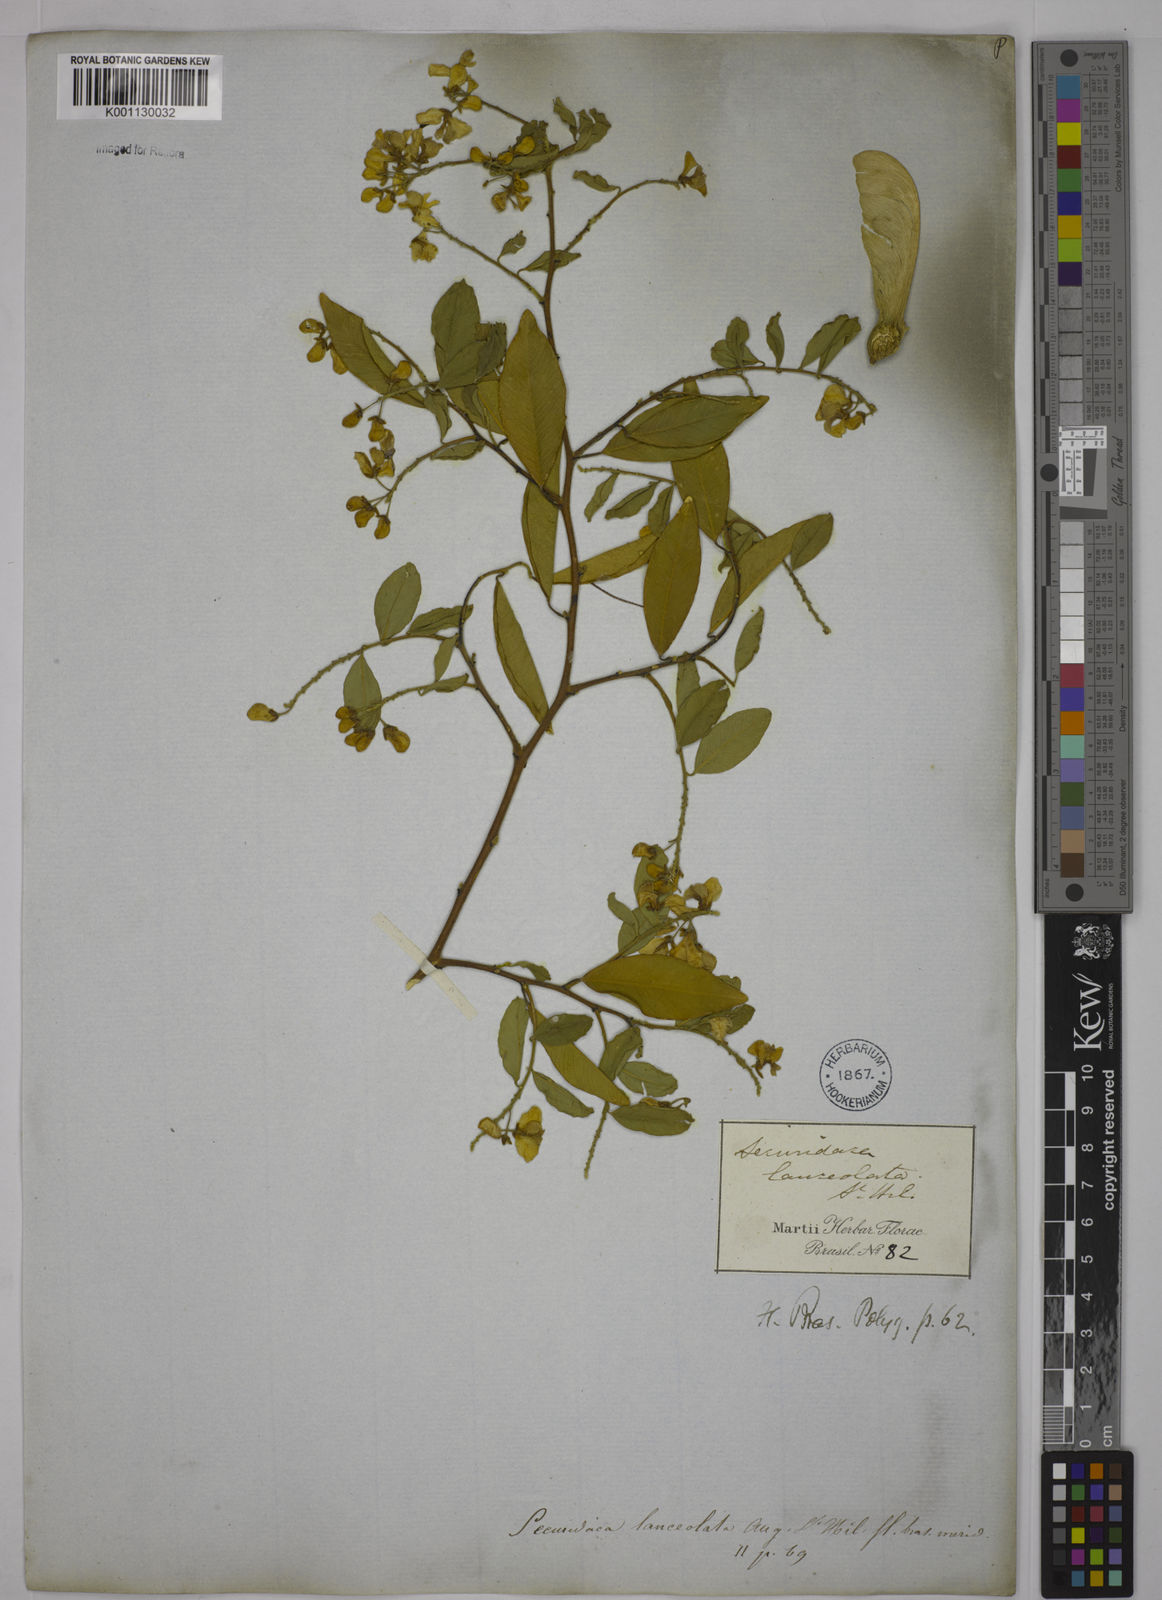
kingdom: Plantae
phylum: Tracheophyta
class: Magnoliopsida
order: Fabales
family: Polygalaceae
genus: Securidaca
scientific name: Securidaca lanceolata
